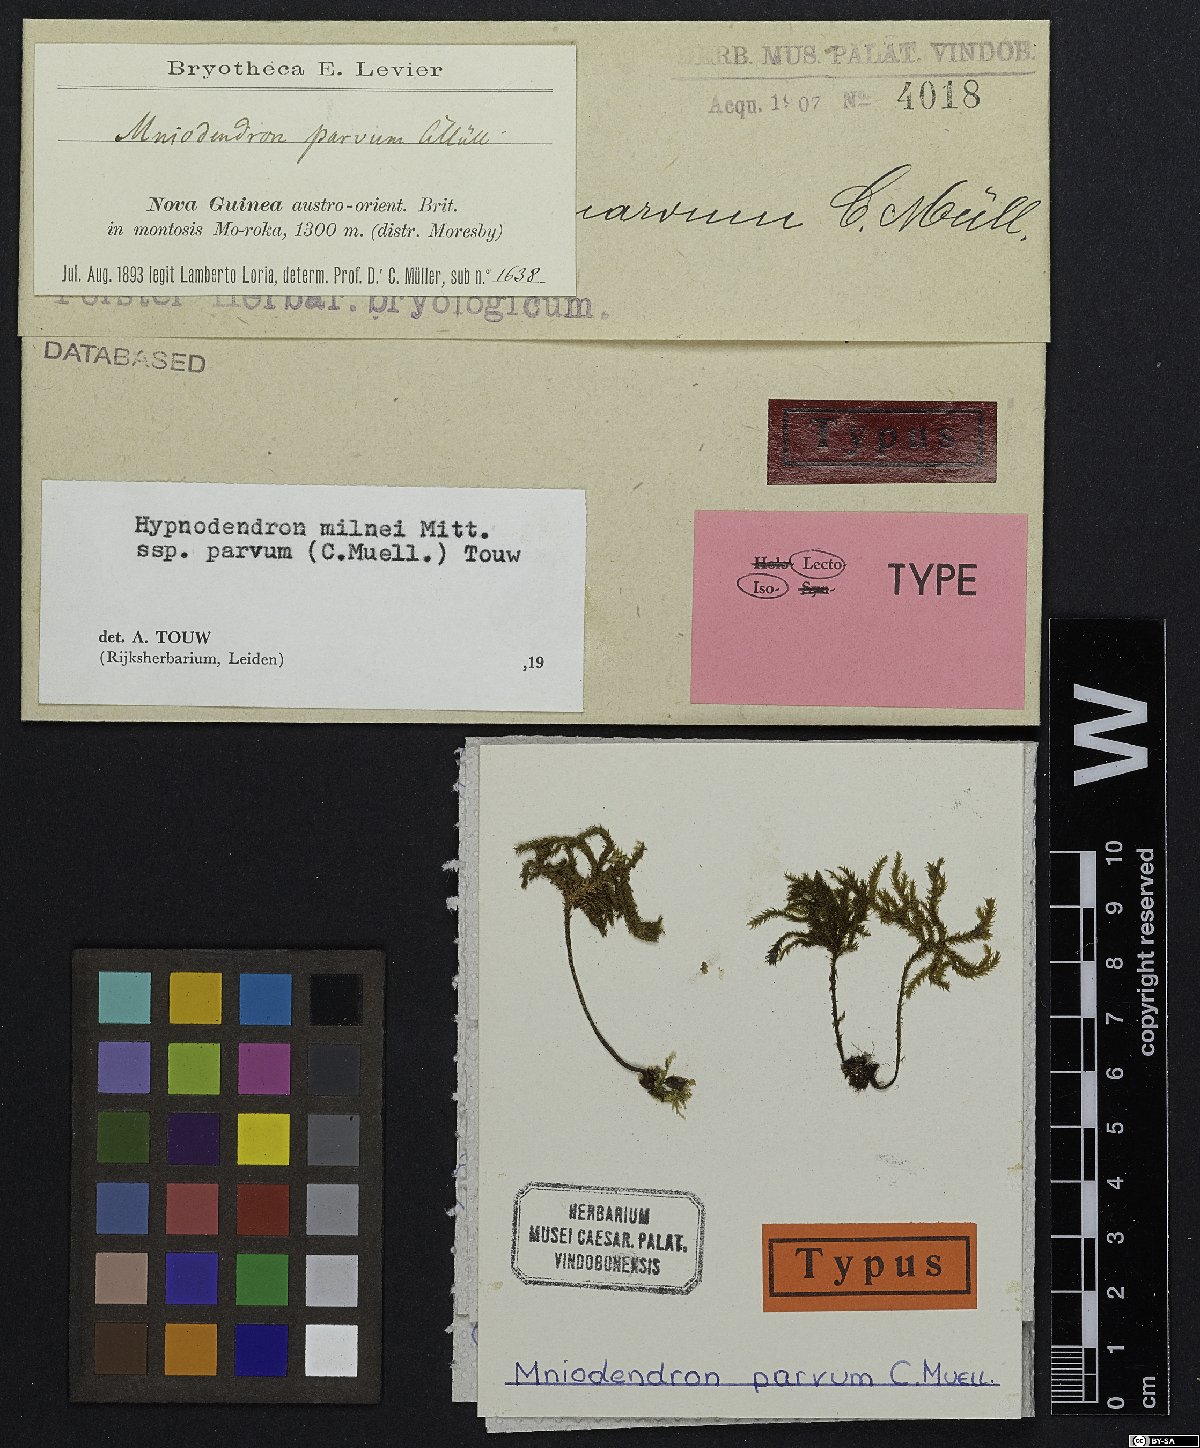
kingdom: Plantae
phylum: Bryophyta
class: Bryopsida
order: Hypnodendrales
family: Spiridentaceae
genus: Dendro-hypnum
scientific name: Dendro-hypnum milnei
